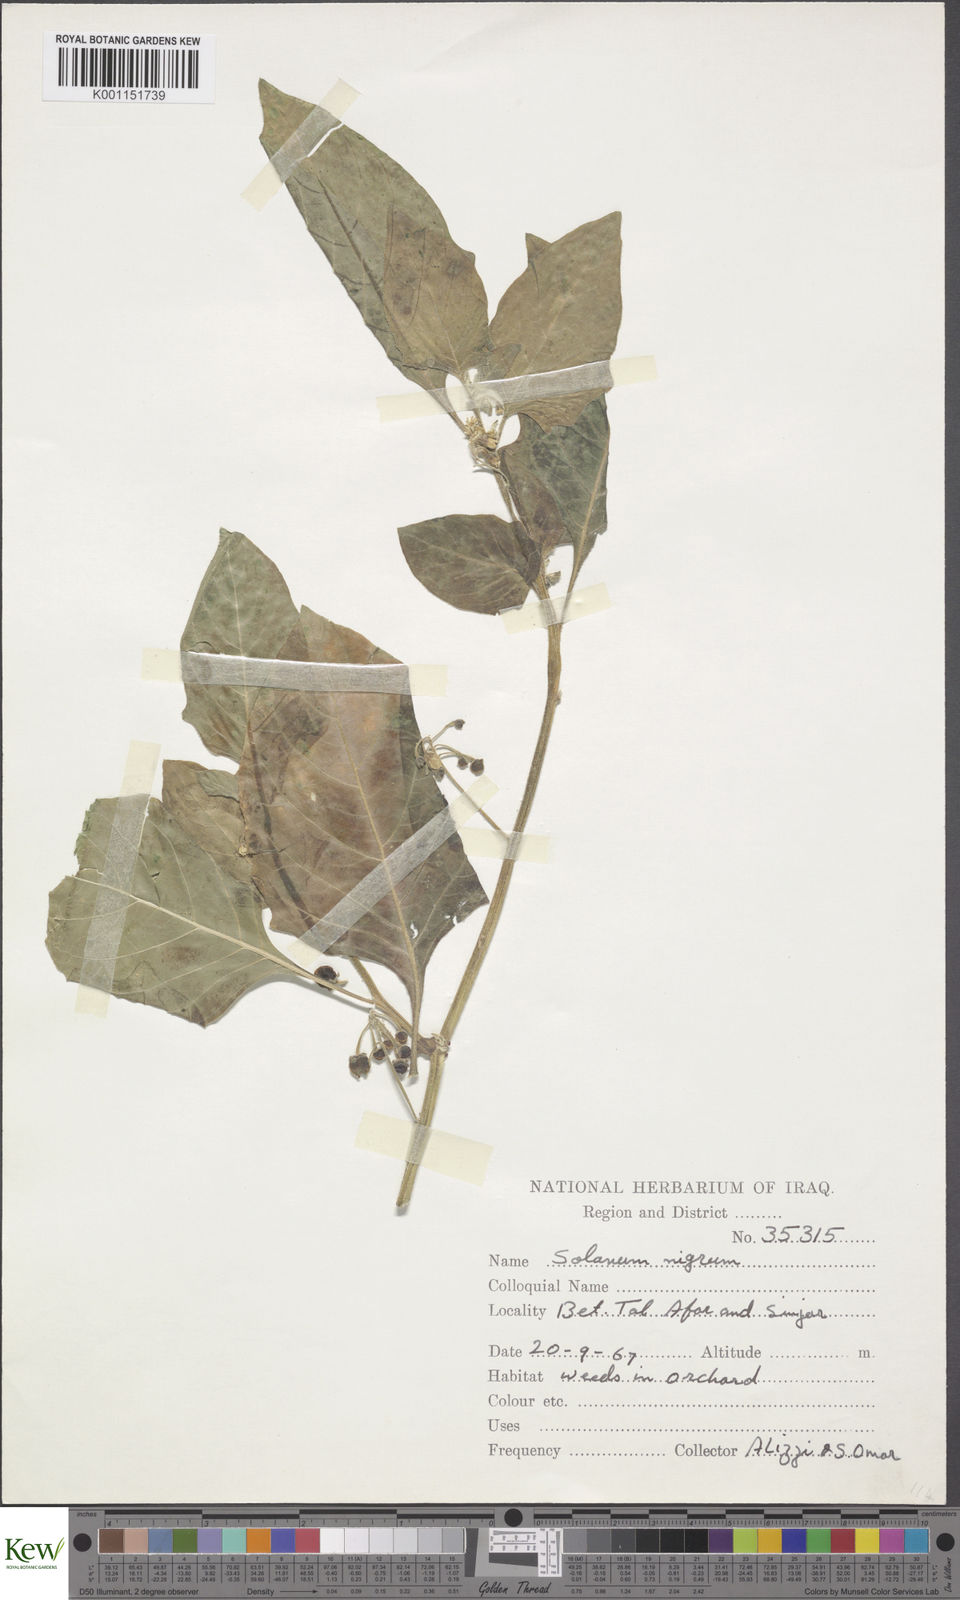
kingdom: Plantae
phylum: Tracheophyta
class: Magnoliopsida
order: Solanales
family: Solanaceae
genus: Solanum
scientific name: Solanum nigrum
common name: Black nightshade
